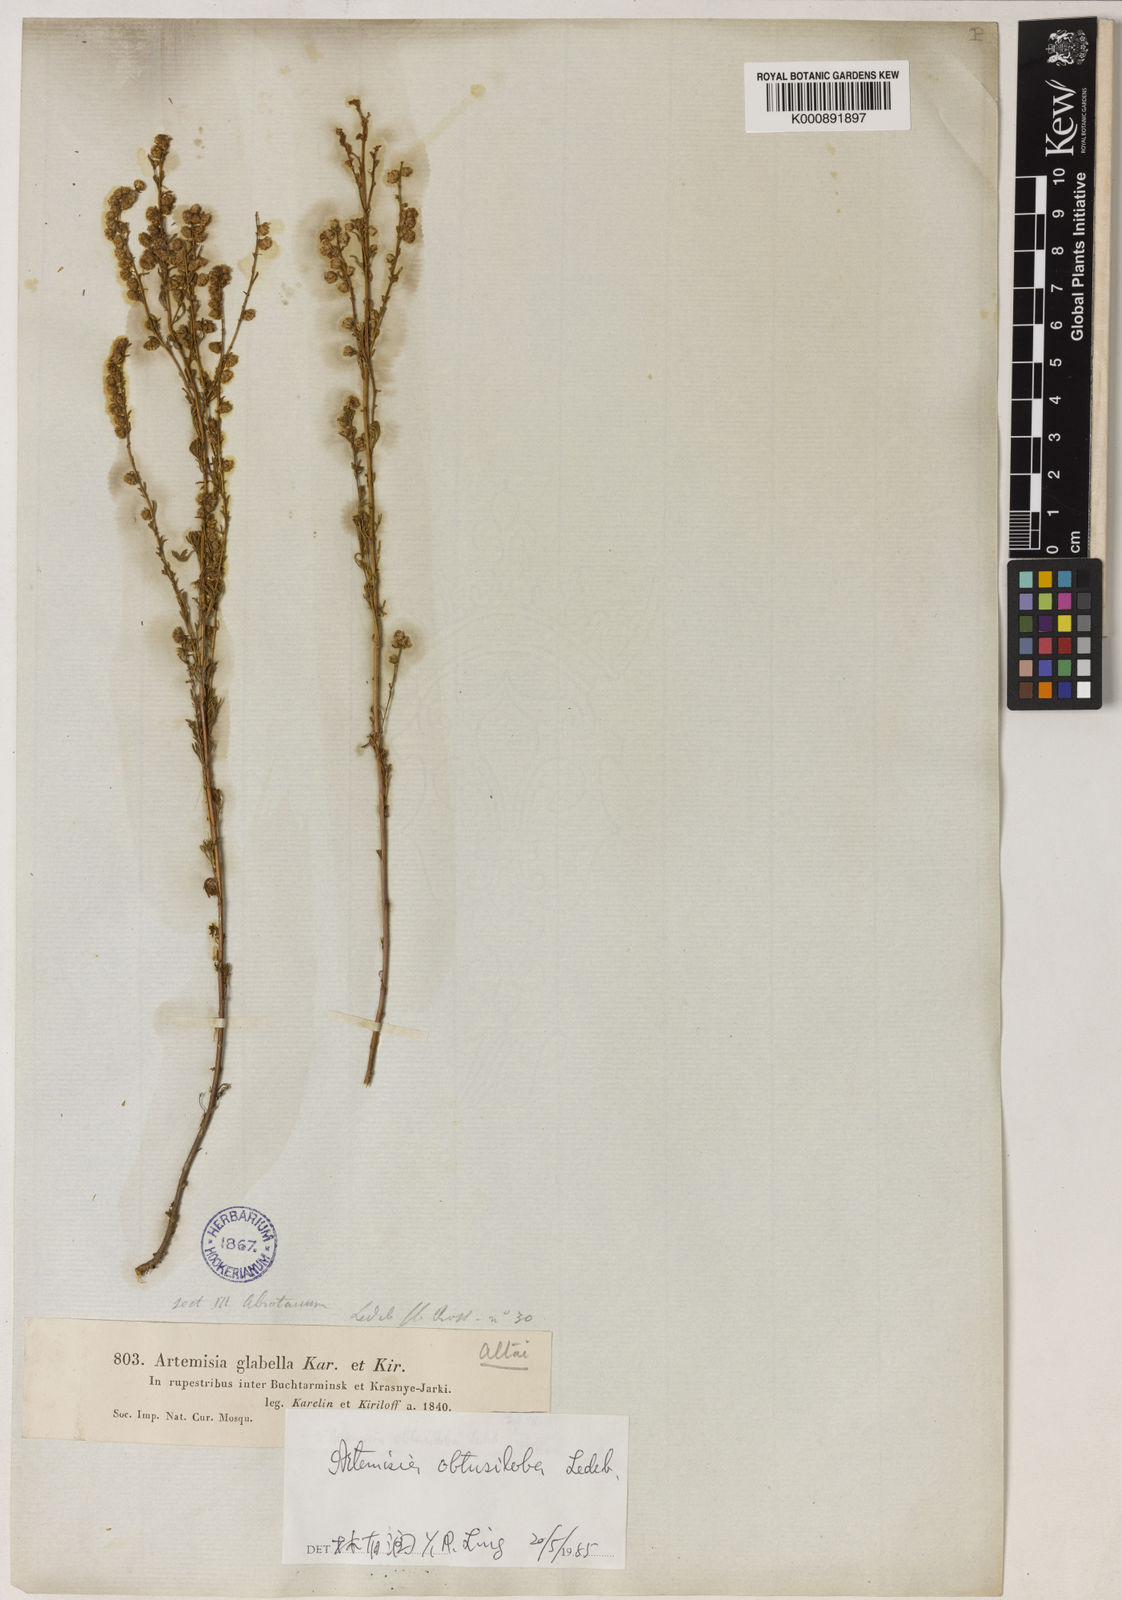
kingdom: Plantae
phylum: Tracheophyta
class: Magnoliopsida
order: Asterales
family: Asteraceae
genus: Artemisia
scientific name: Artemisia obtusiloba
